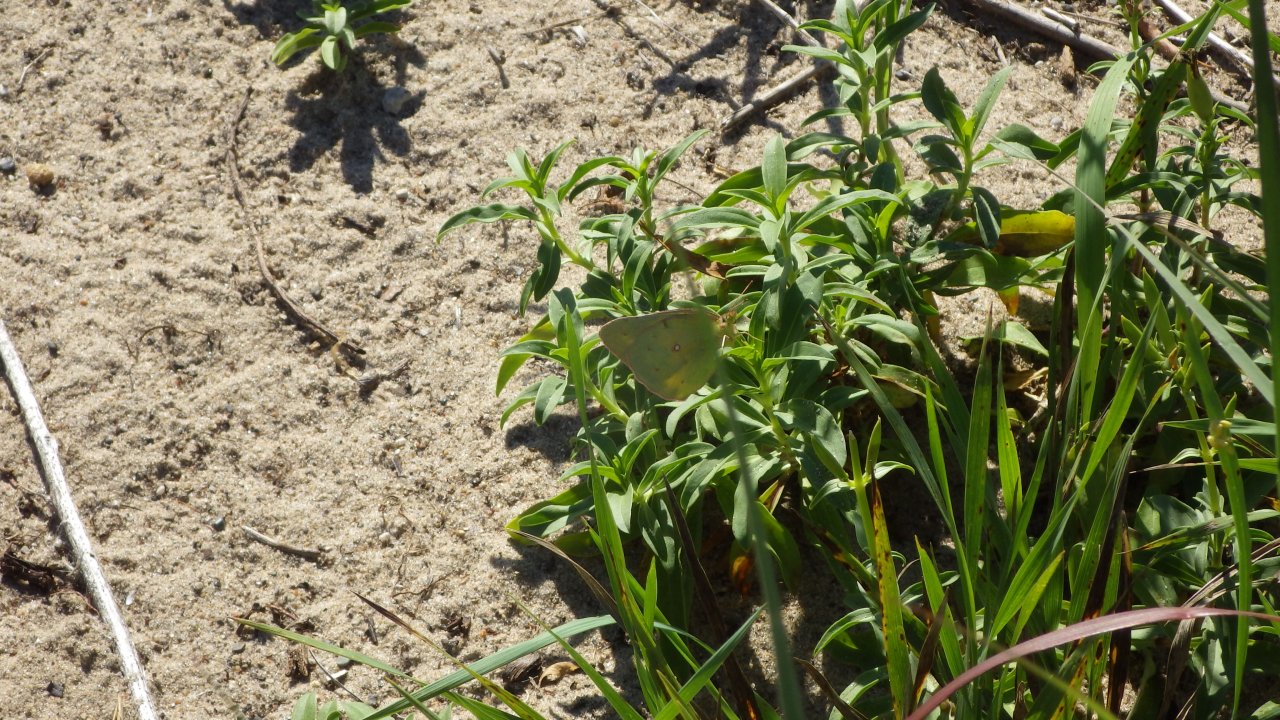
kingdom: Animalia
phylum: Arthropoda
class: Insecta
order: Lepidoptera
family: Pieridae
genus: Colias
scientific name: Colias eurytheme
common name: Orange Sulphur
